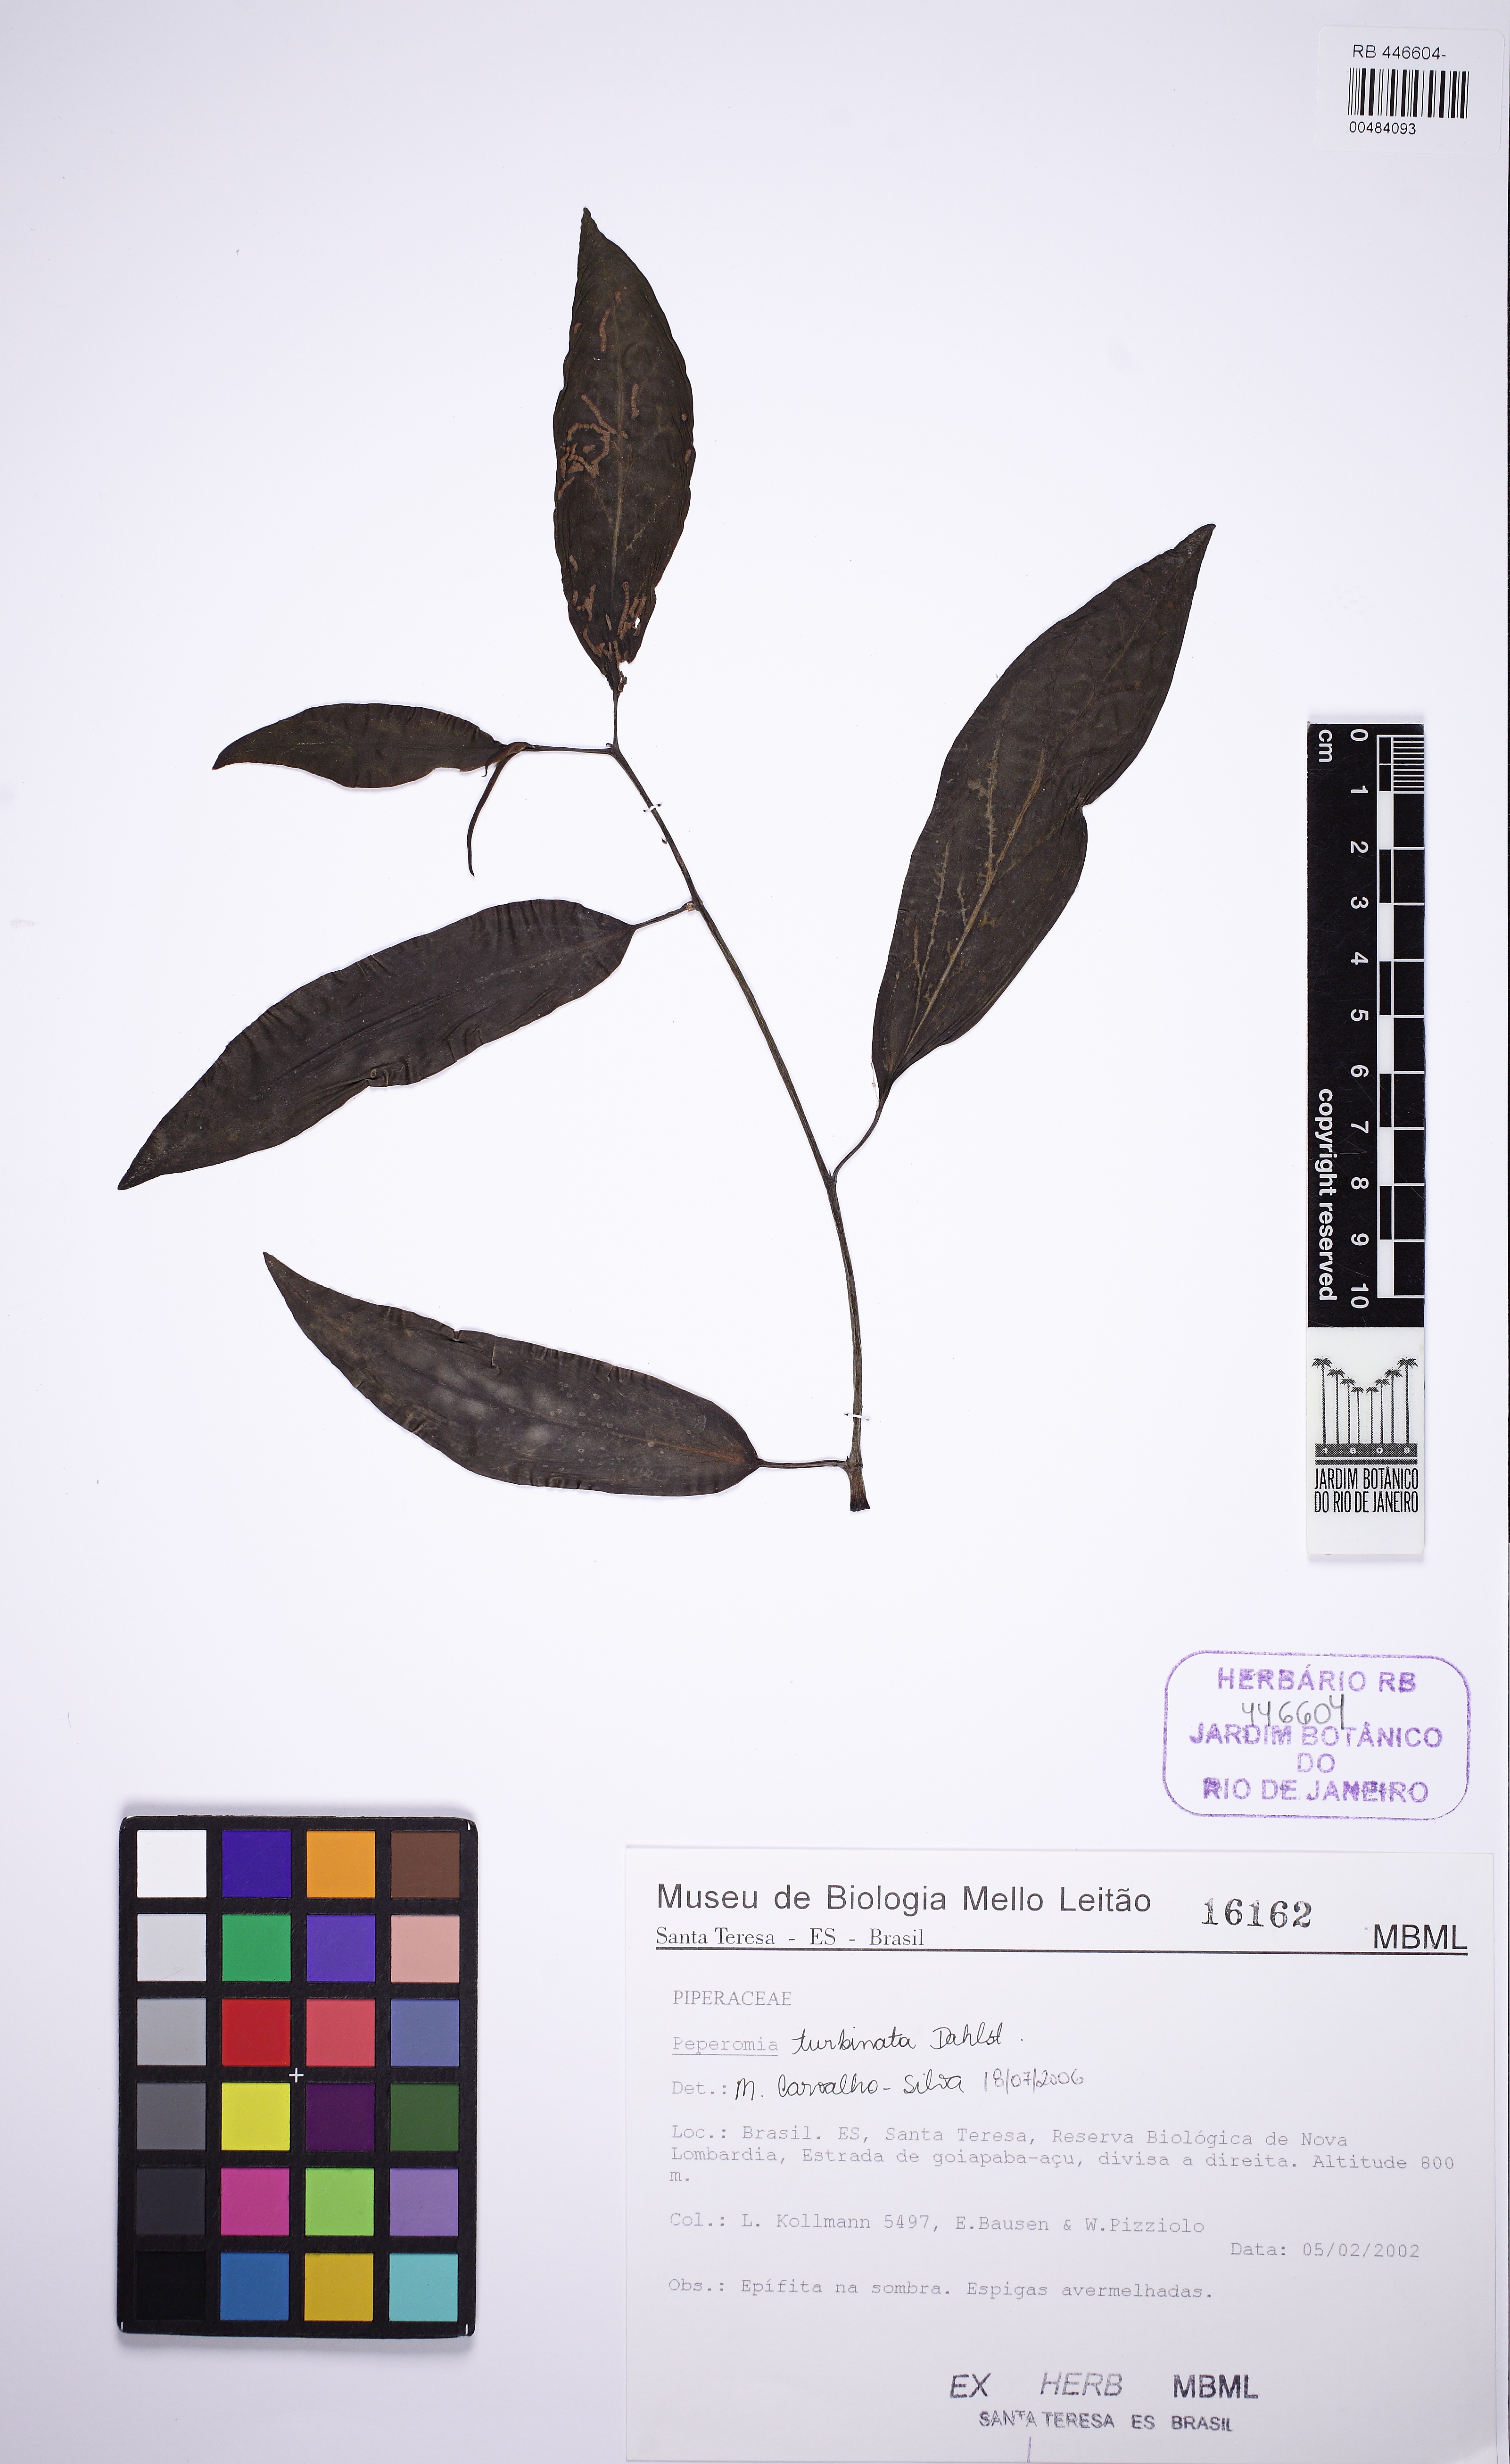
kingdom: Plantae
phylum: Tracheophyta
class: Magnoliopsida
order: Piperales
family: Piperaceae
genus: Peperomia
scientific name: Peperomia turbinata
